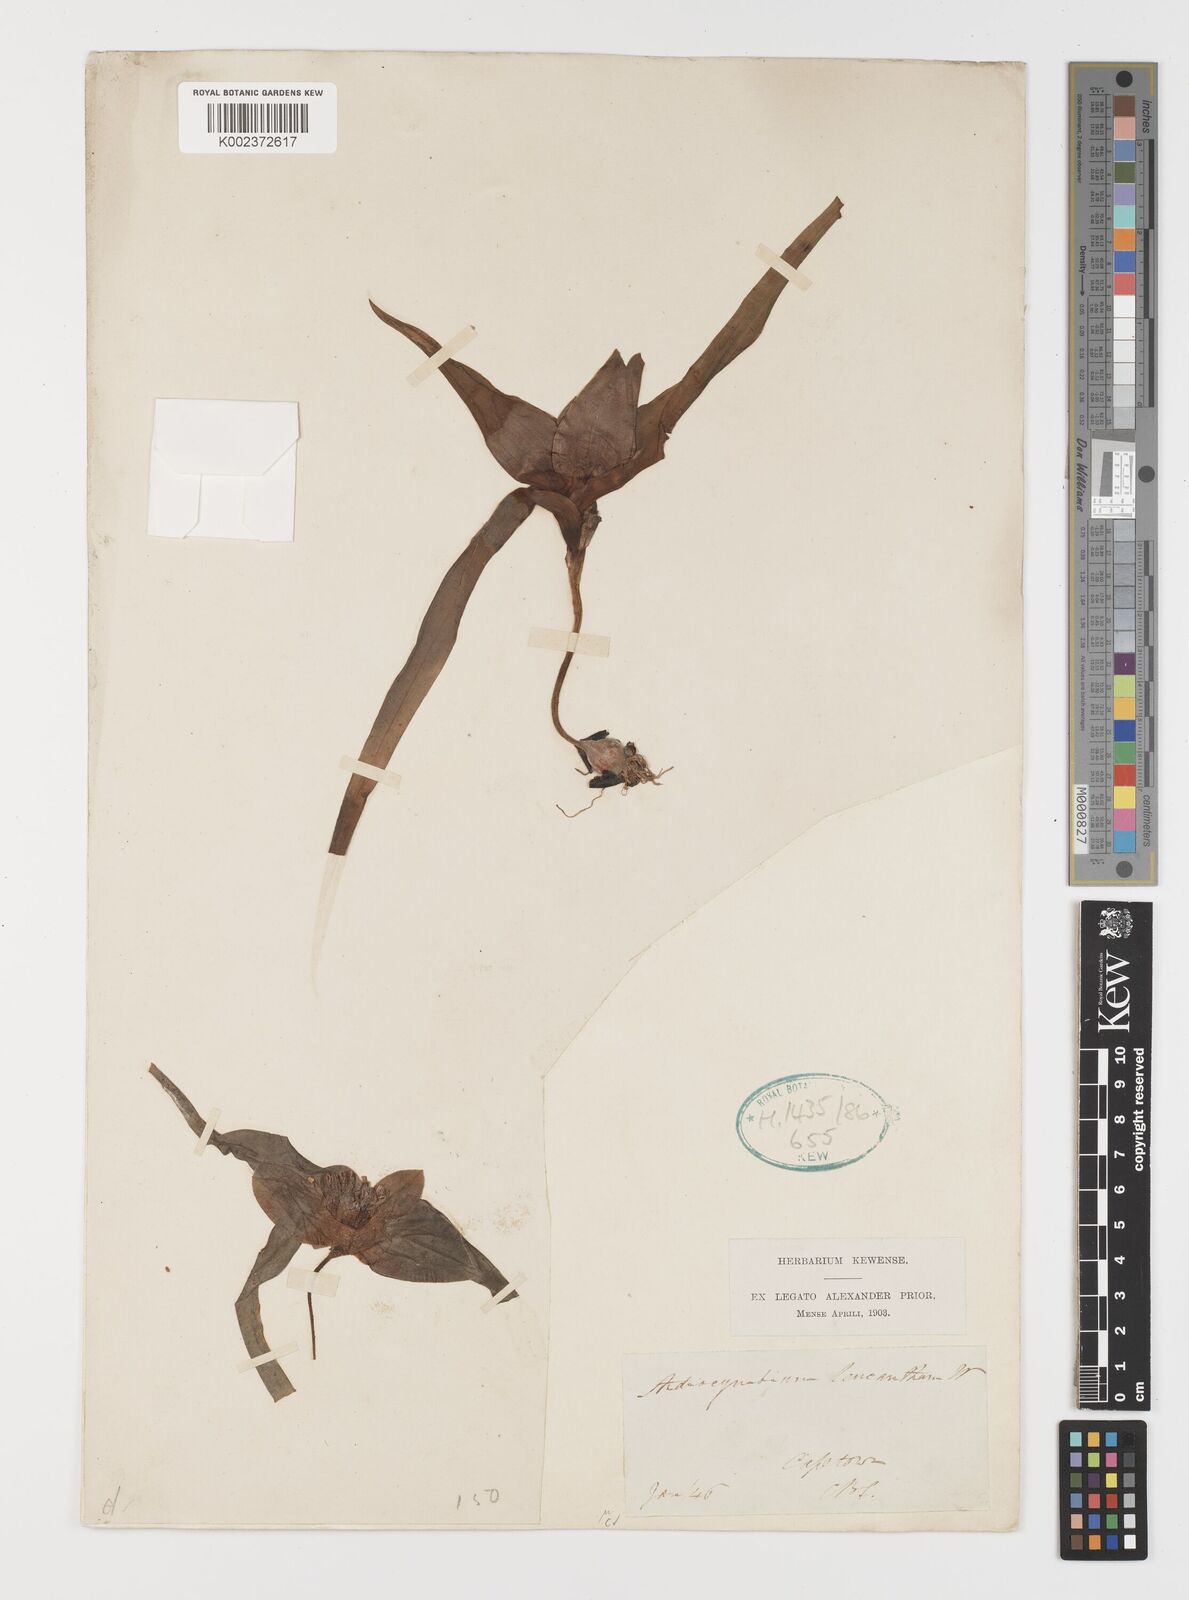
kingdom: Plantae
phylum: Tracheophyta
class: Liliopsida
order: Liliales
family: Colchicaceae
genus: Colchicum
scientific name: Colchicum capense
